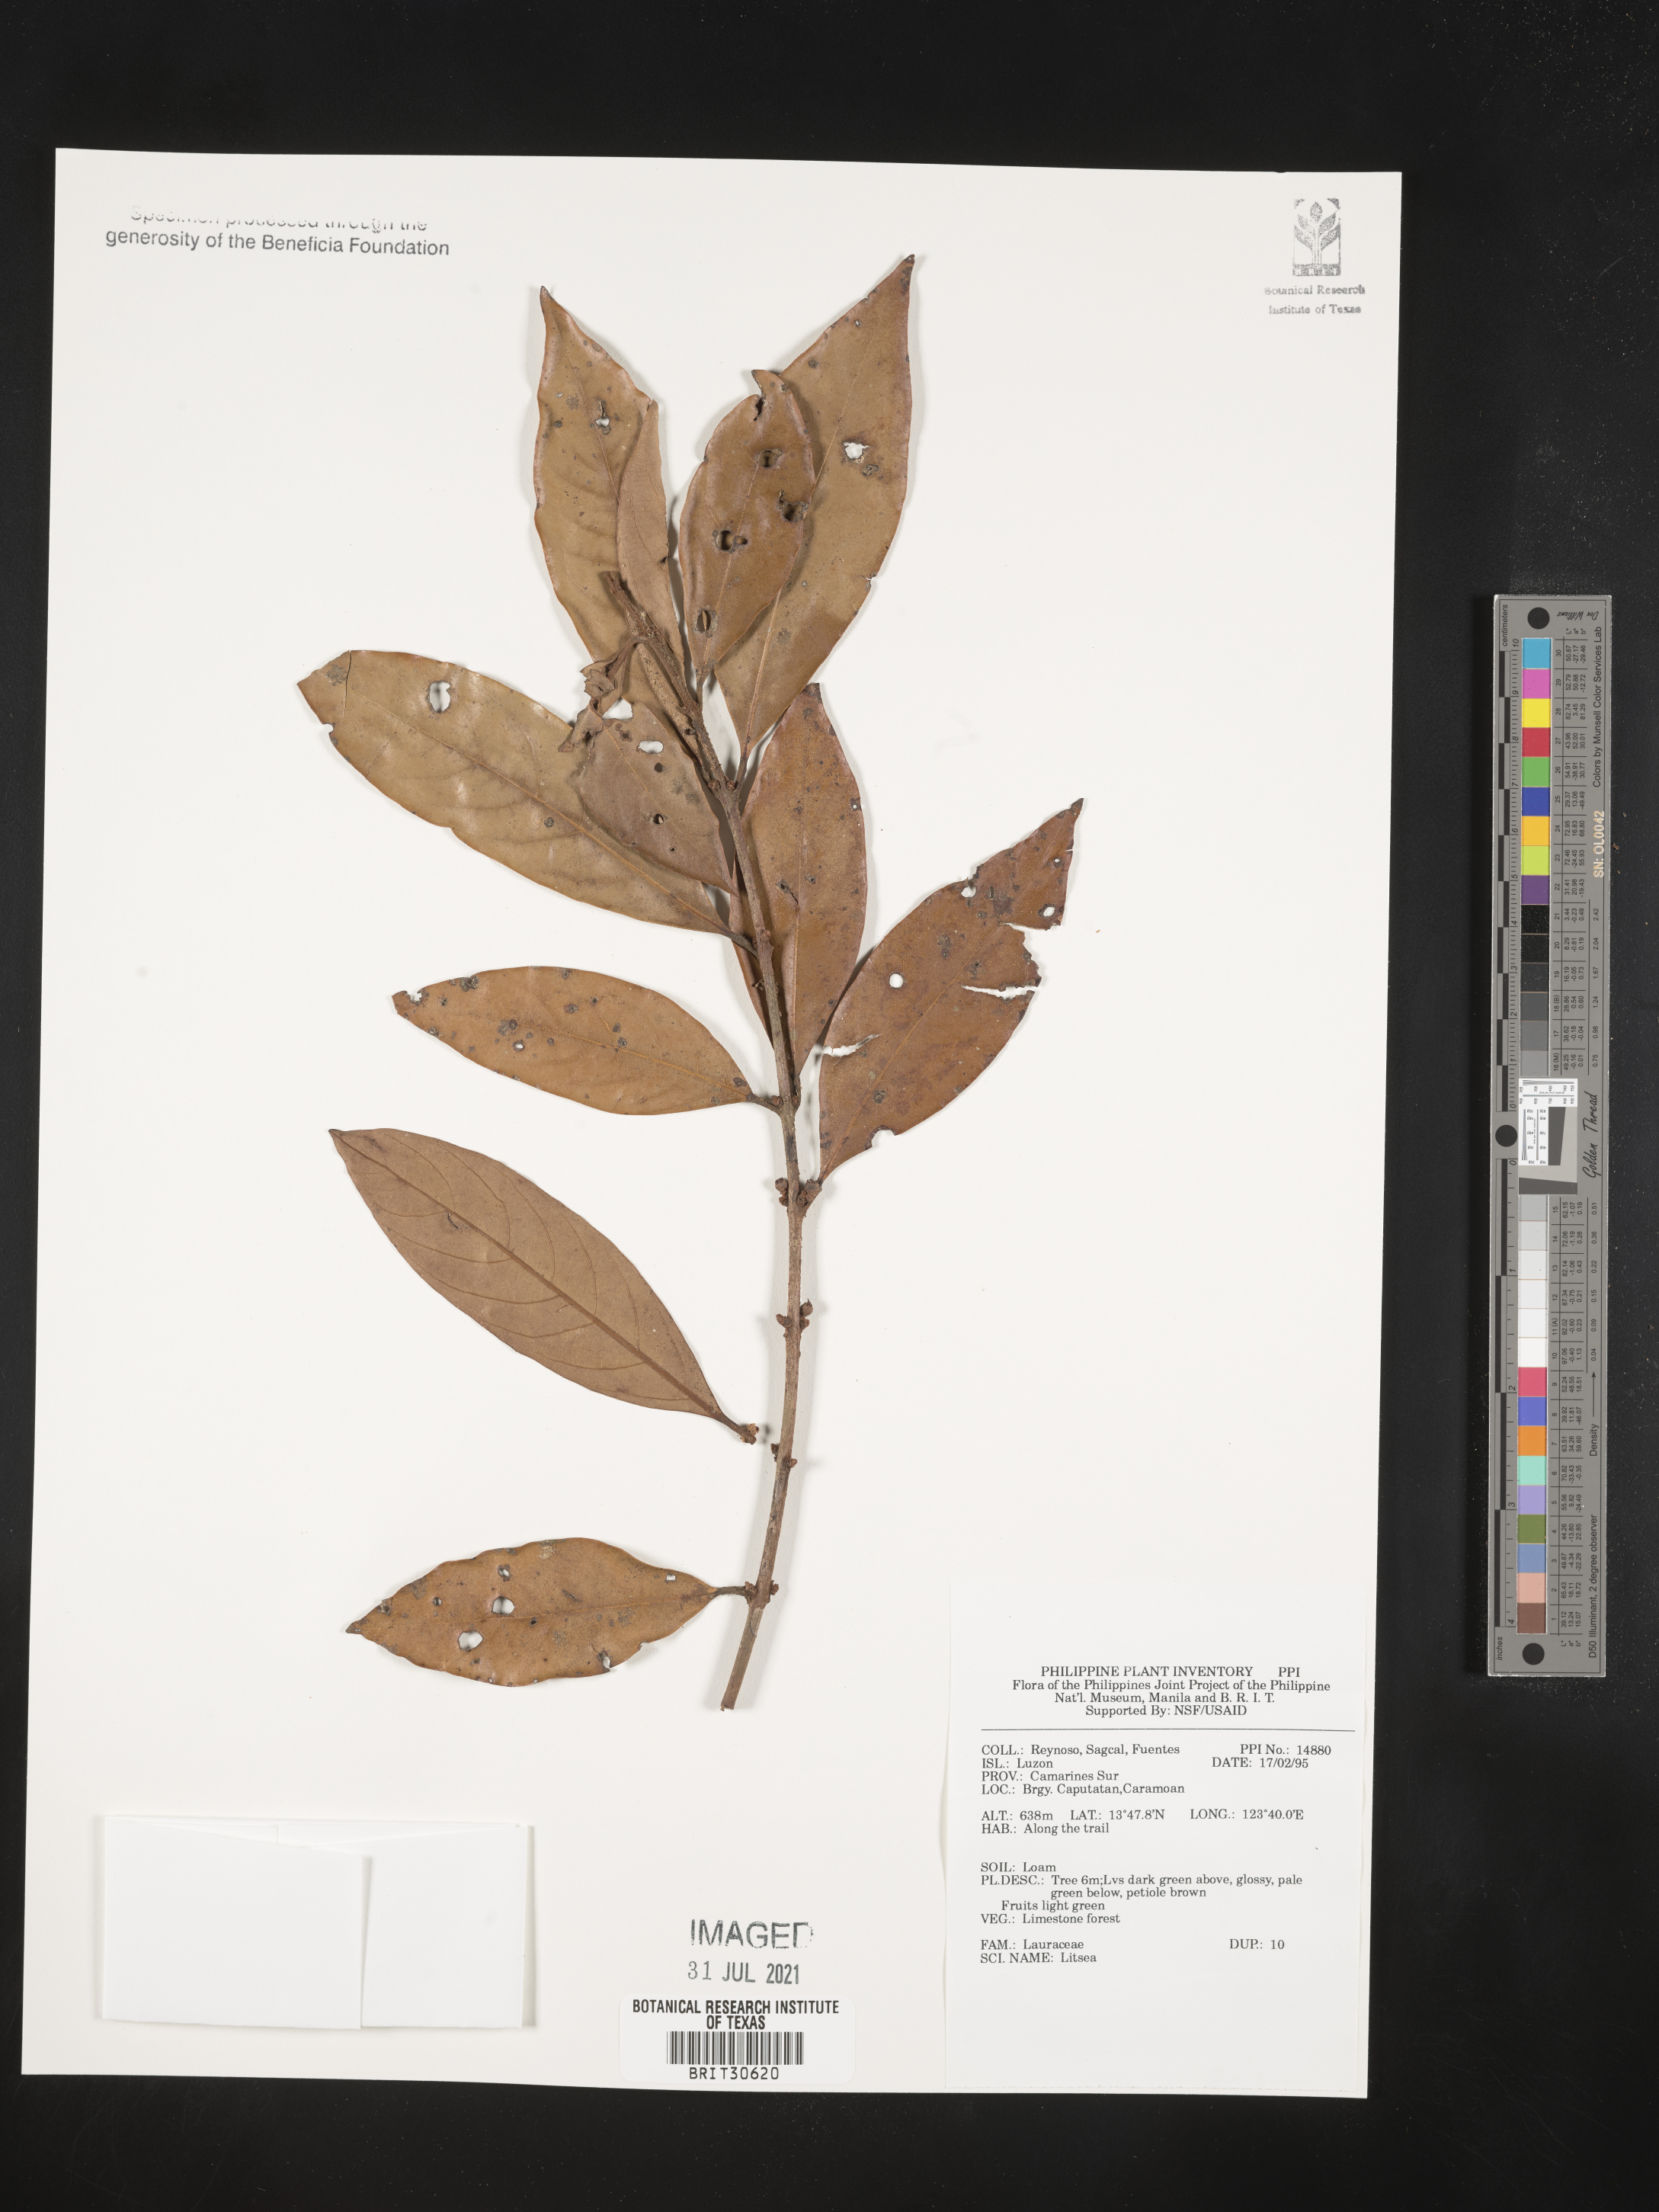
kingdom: Plantae
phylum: Tracheophyta
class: Magnoliopsida
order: Laurales
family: Lauraceae
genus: Litsea
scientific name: Litsea
